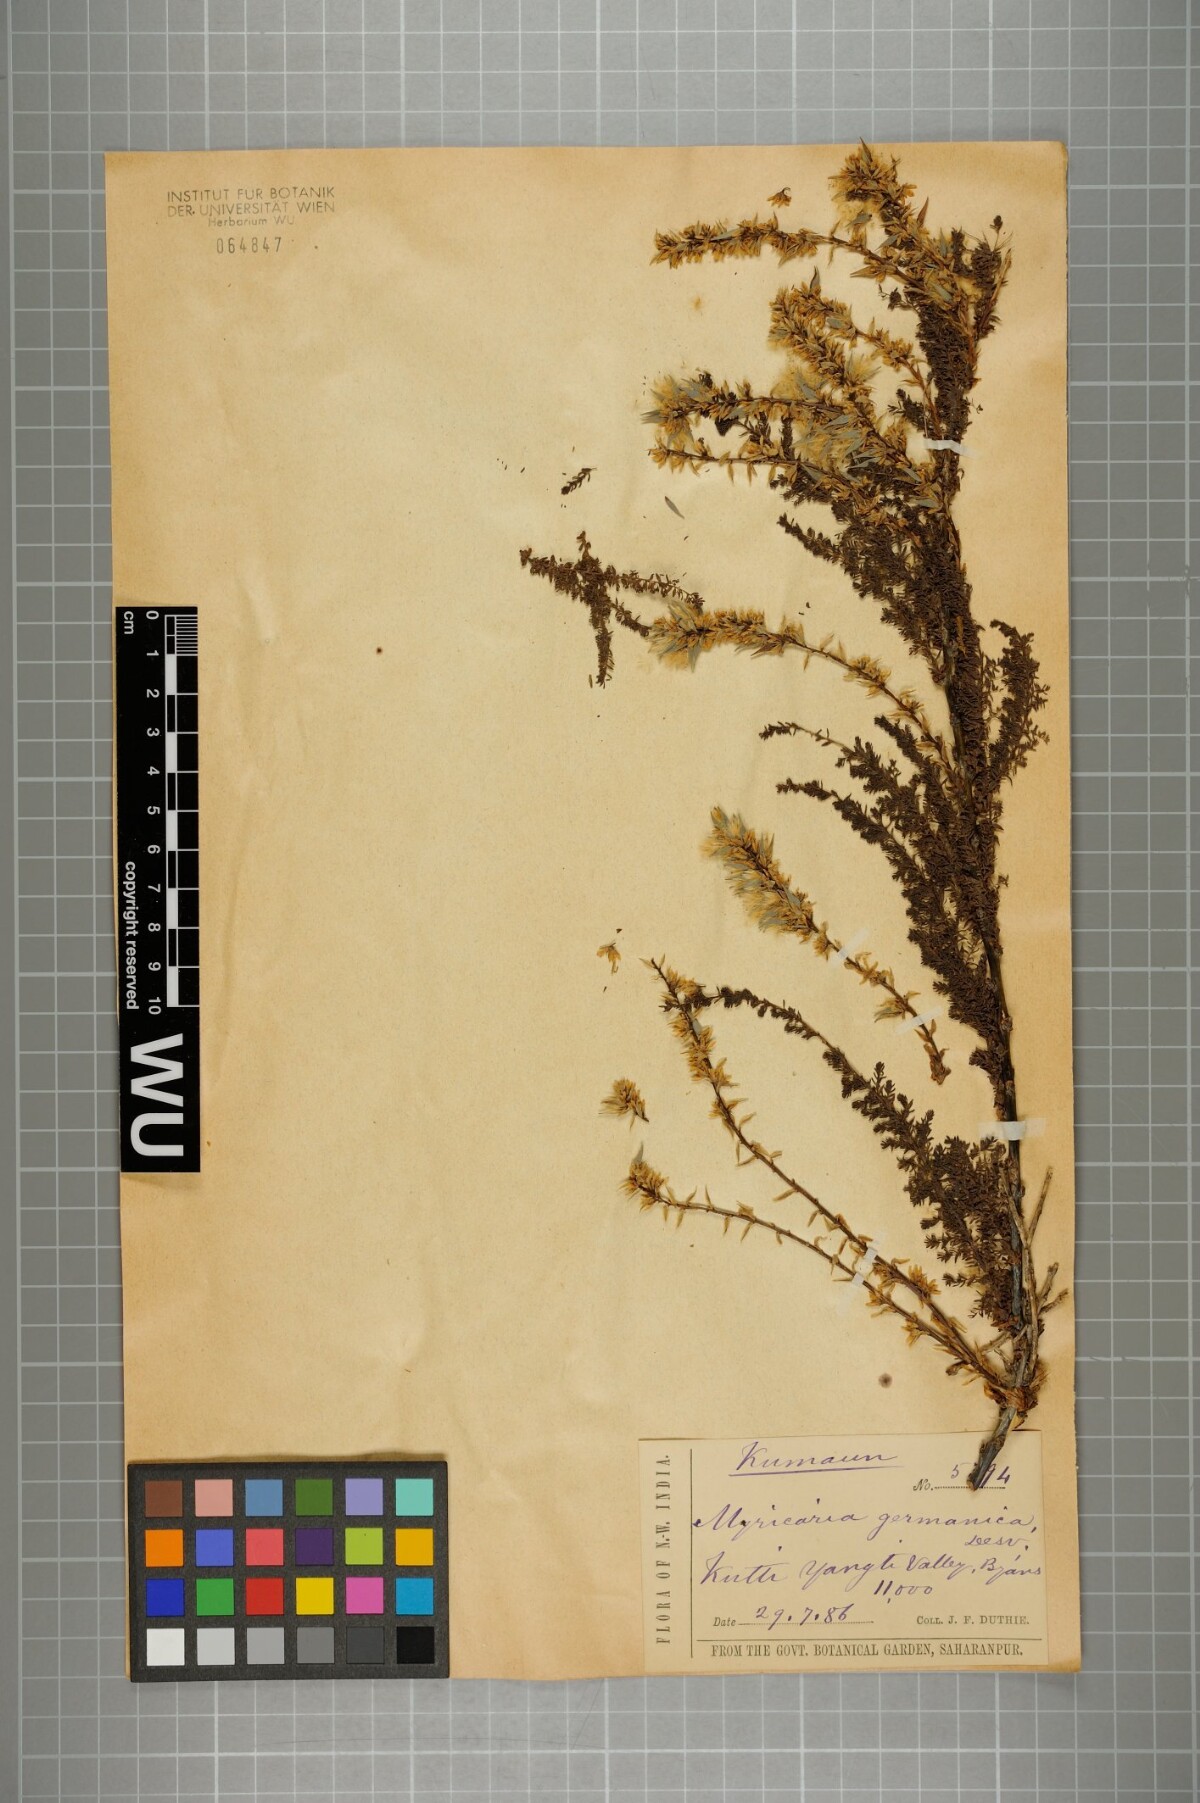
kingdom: Plantae
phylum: Tracheophyta
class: Magnoliopsida
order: Caryophyllales
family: Tamaricaceae
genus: Myricaria
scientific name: Myricaria germanica
